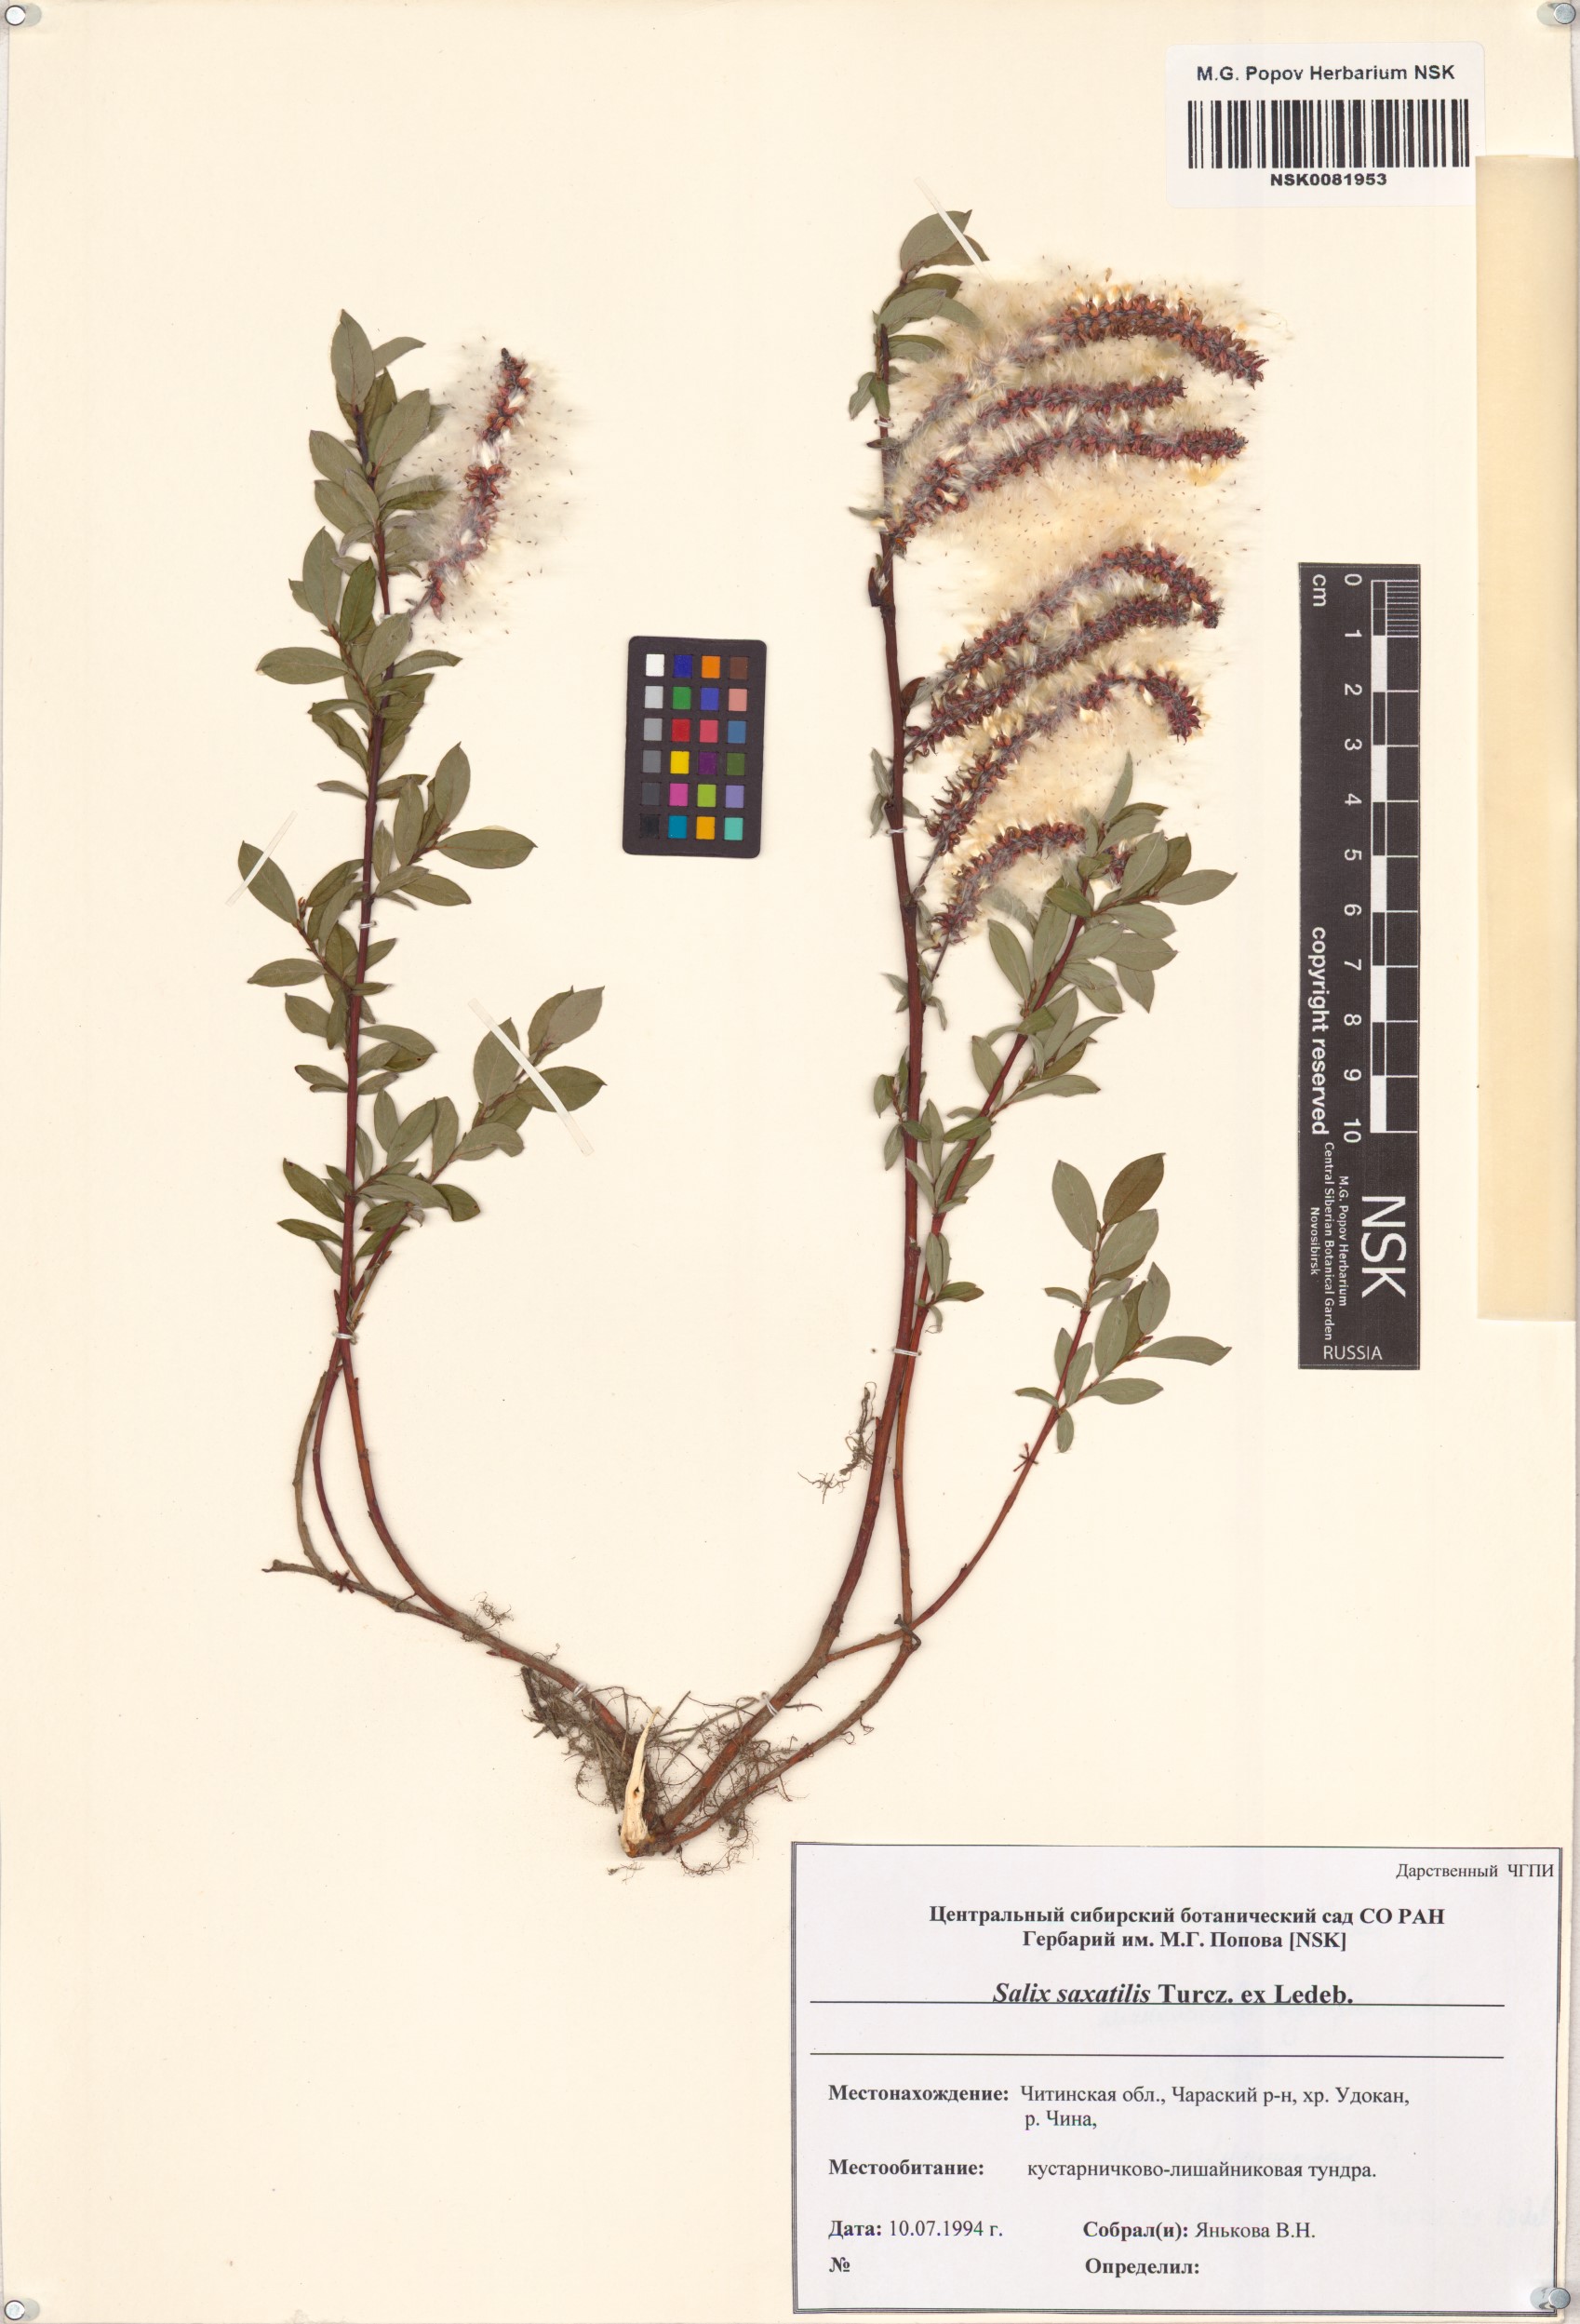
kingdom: Plantae
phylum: Tracheophyta
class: Magnoliopsida
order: Malpighiales
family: Salicaceae
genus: Salix
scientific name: Salix saxatilis
